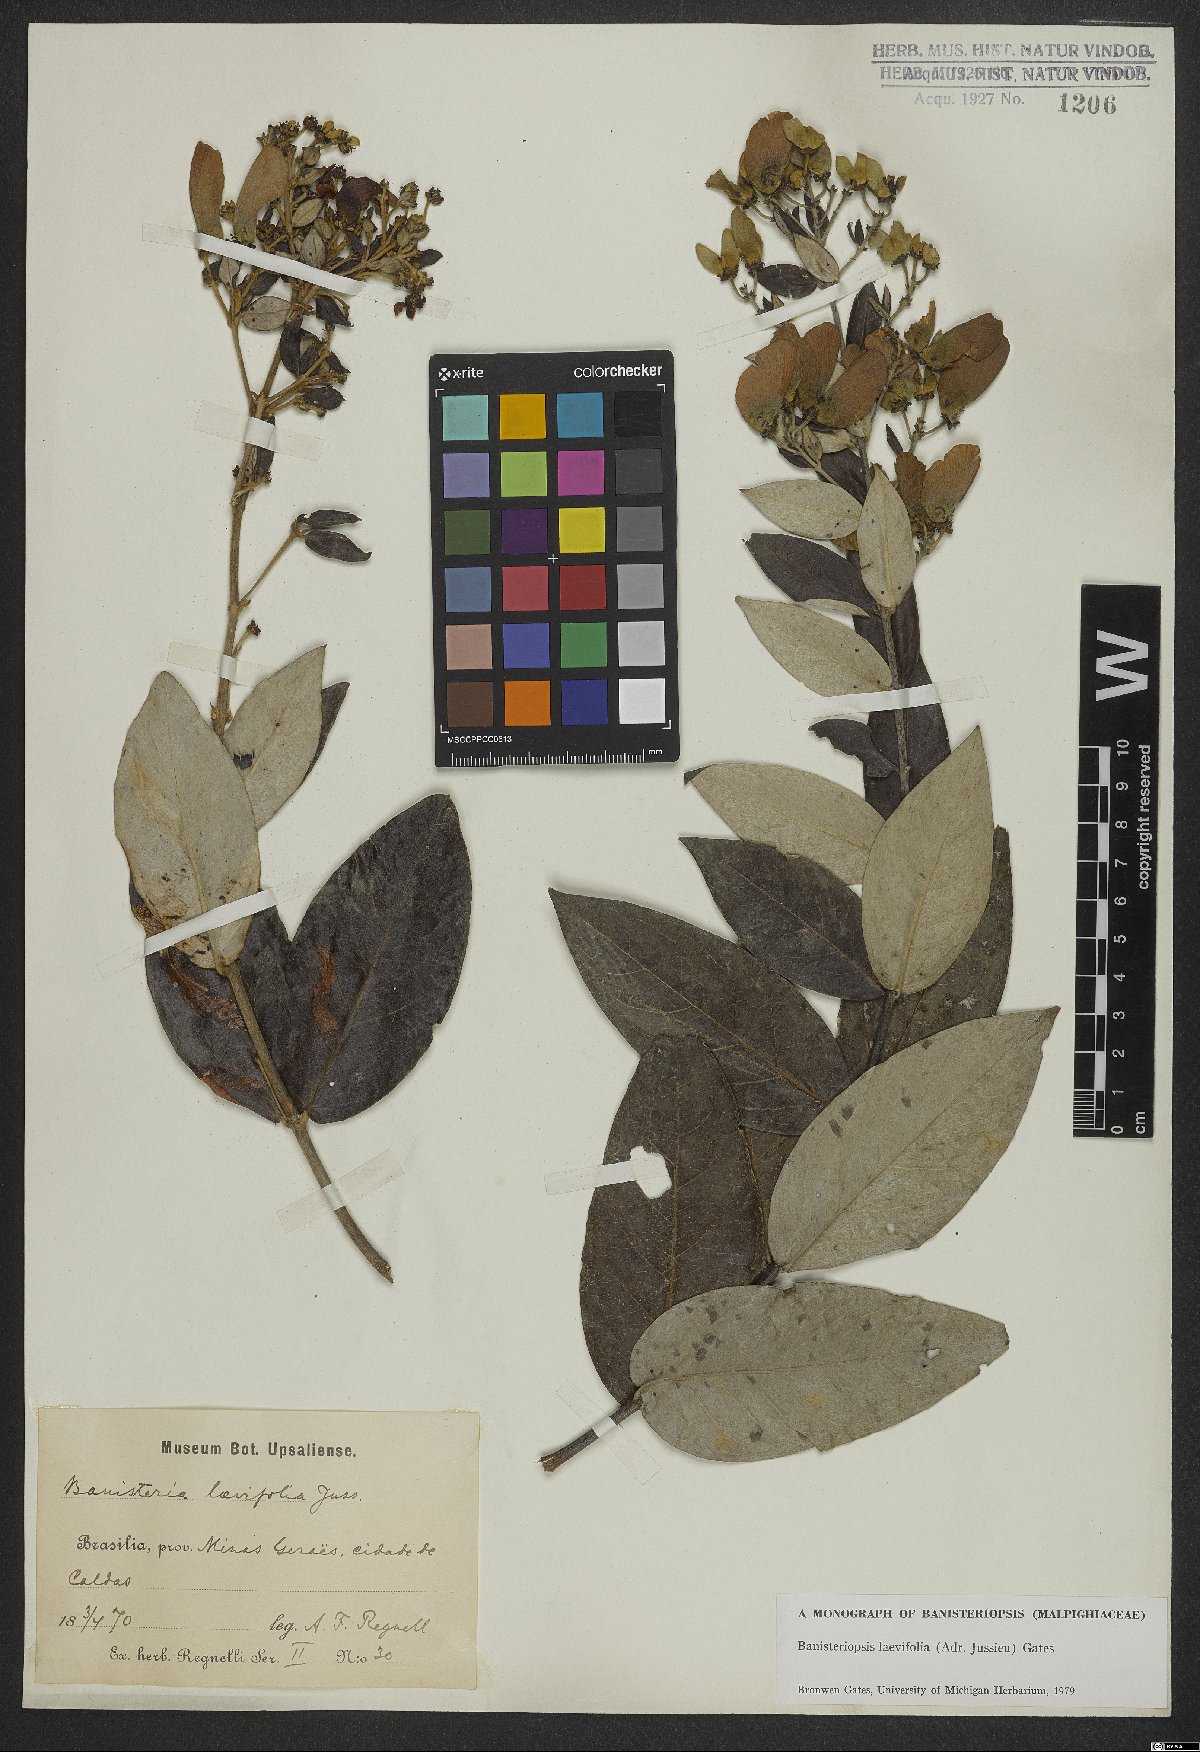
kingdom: Plantae
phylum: Tracheophyta
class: Magnoliopsida
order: Malpighiales
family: Malpighiaceae
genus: Banisteriopsis
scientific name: Banisteriopsis laevifolia
